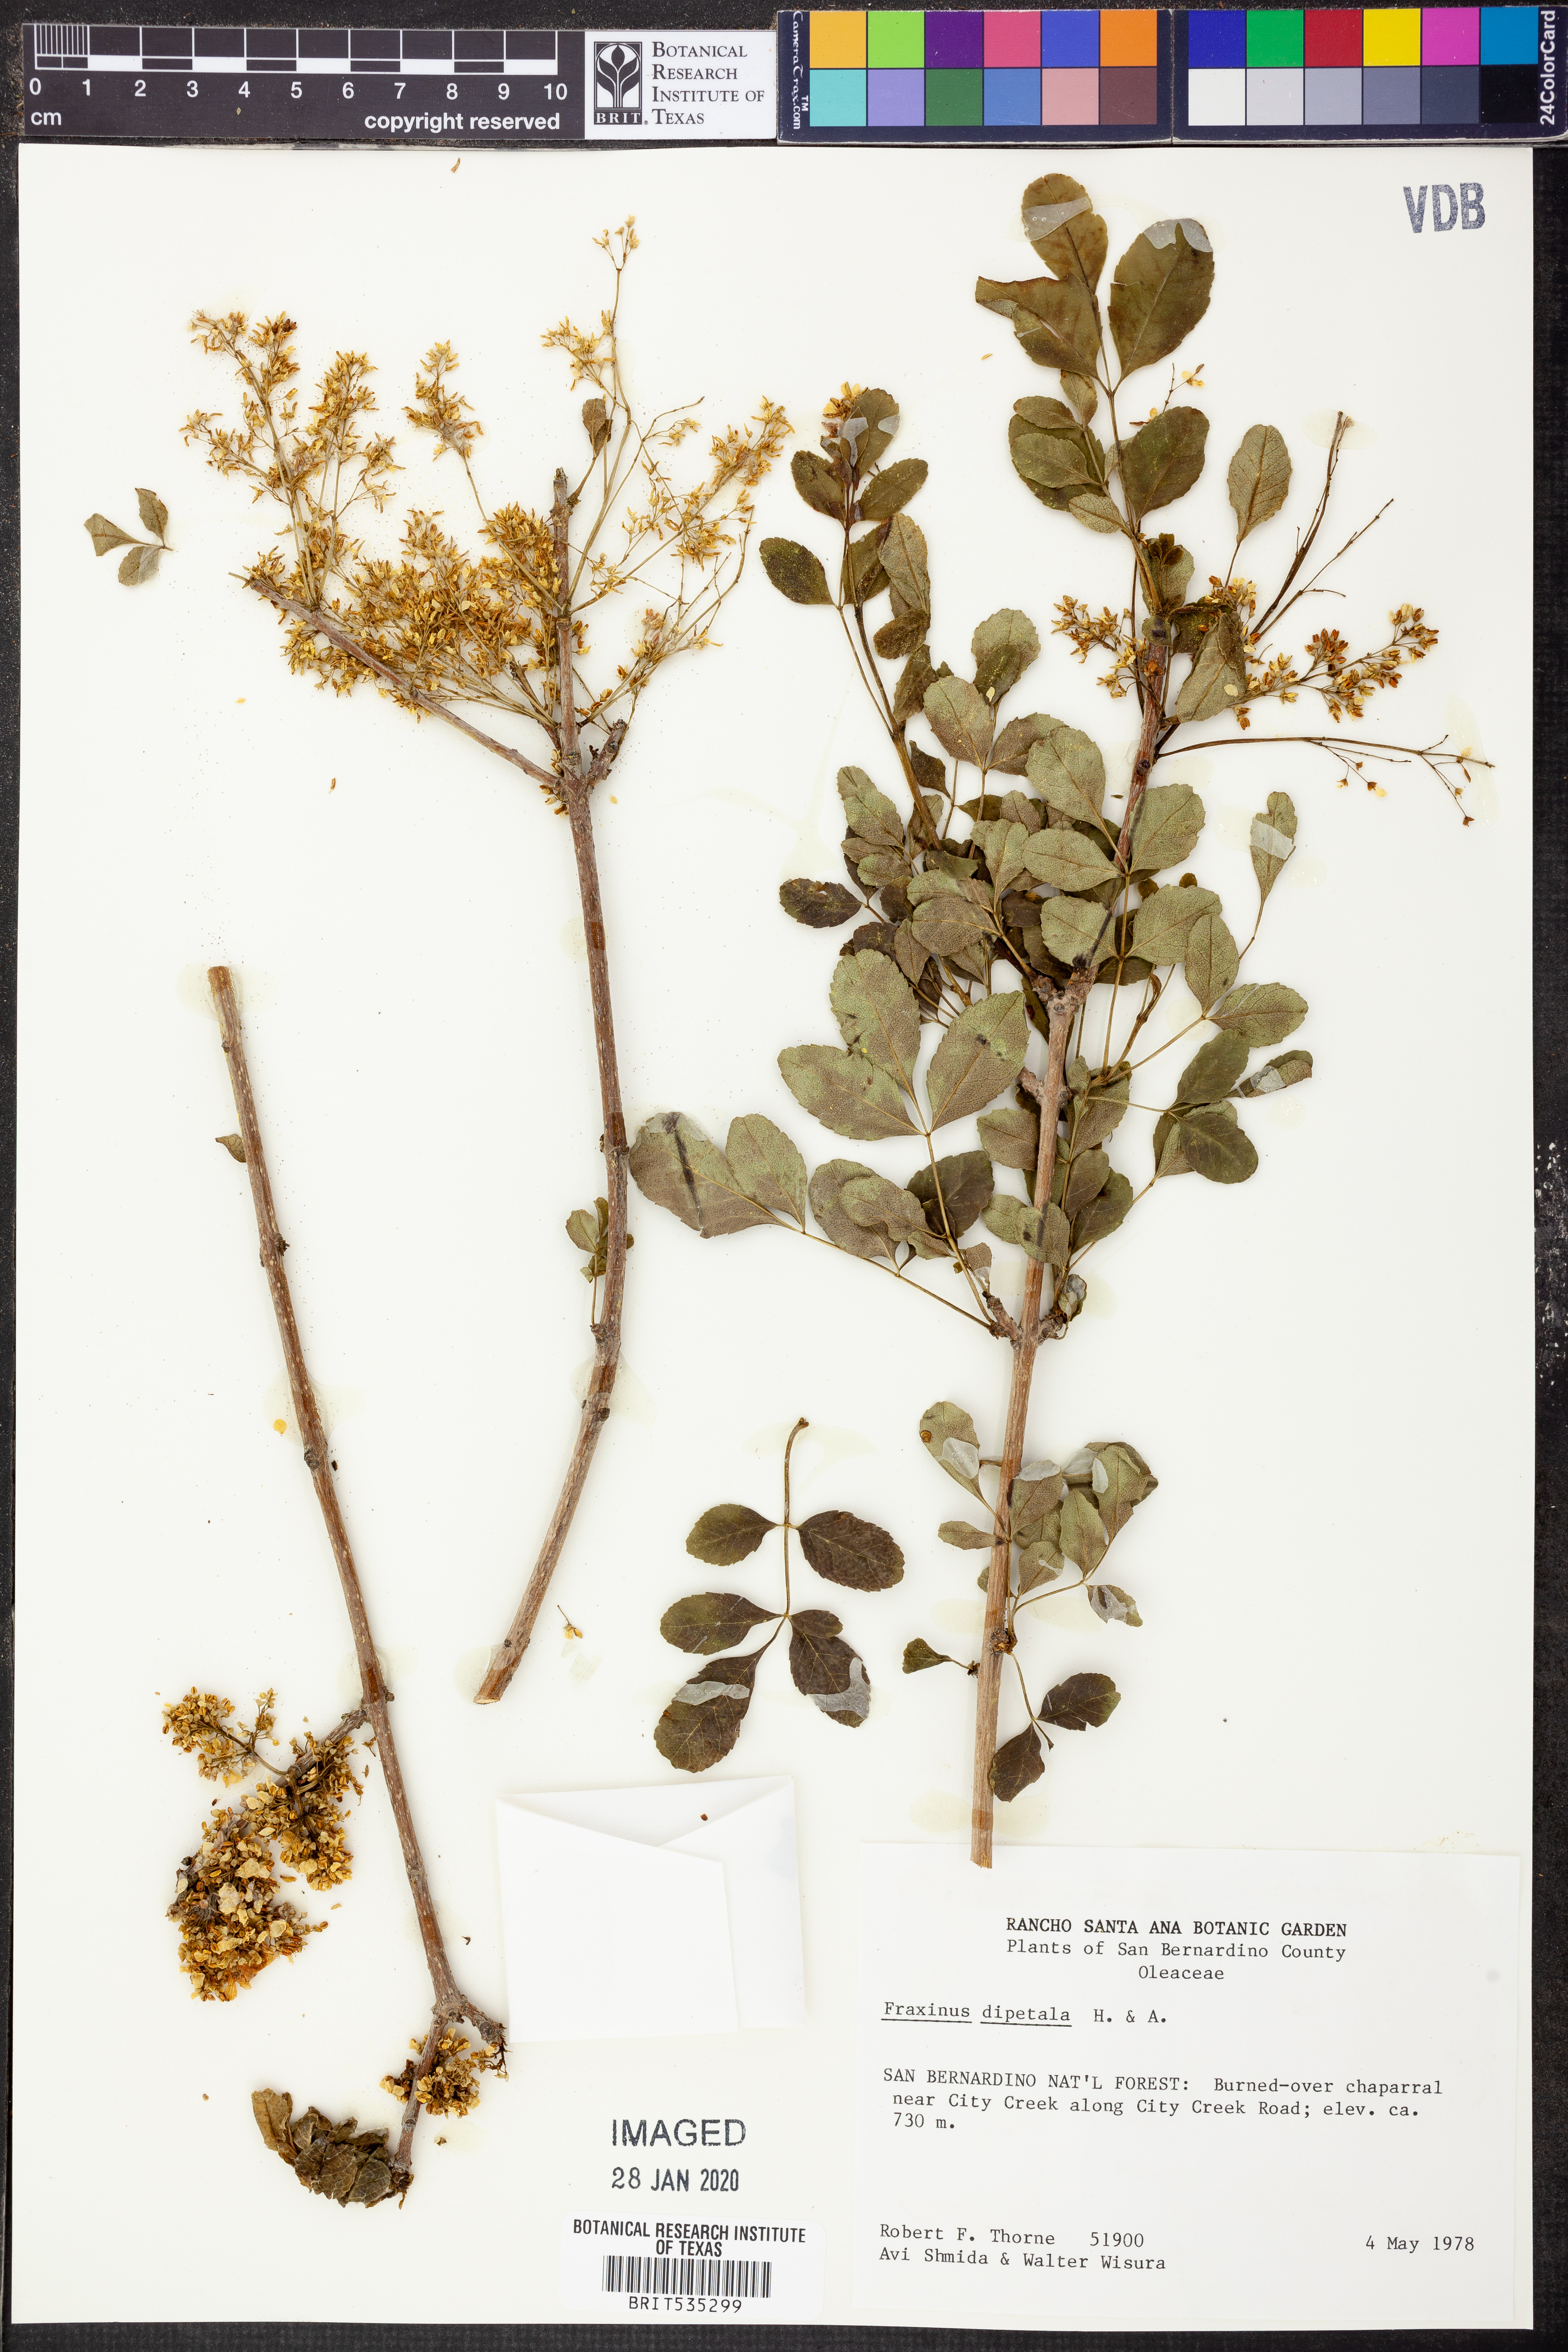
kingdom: Plantae
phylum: Tracheophyta
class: Magnoliopsida
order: Lamiales
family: Oleaceae
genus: Fraxinus
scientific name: Fraxinus dipetala
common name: California ash
